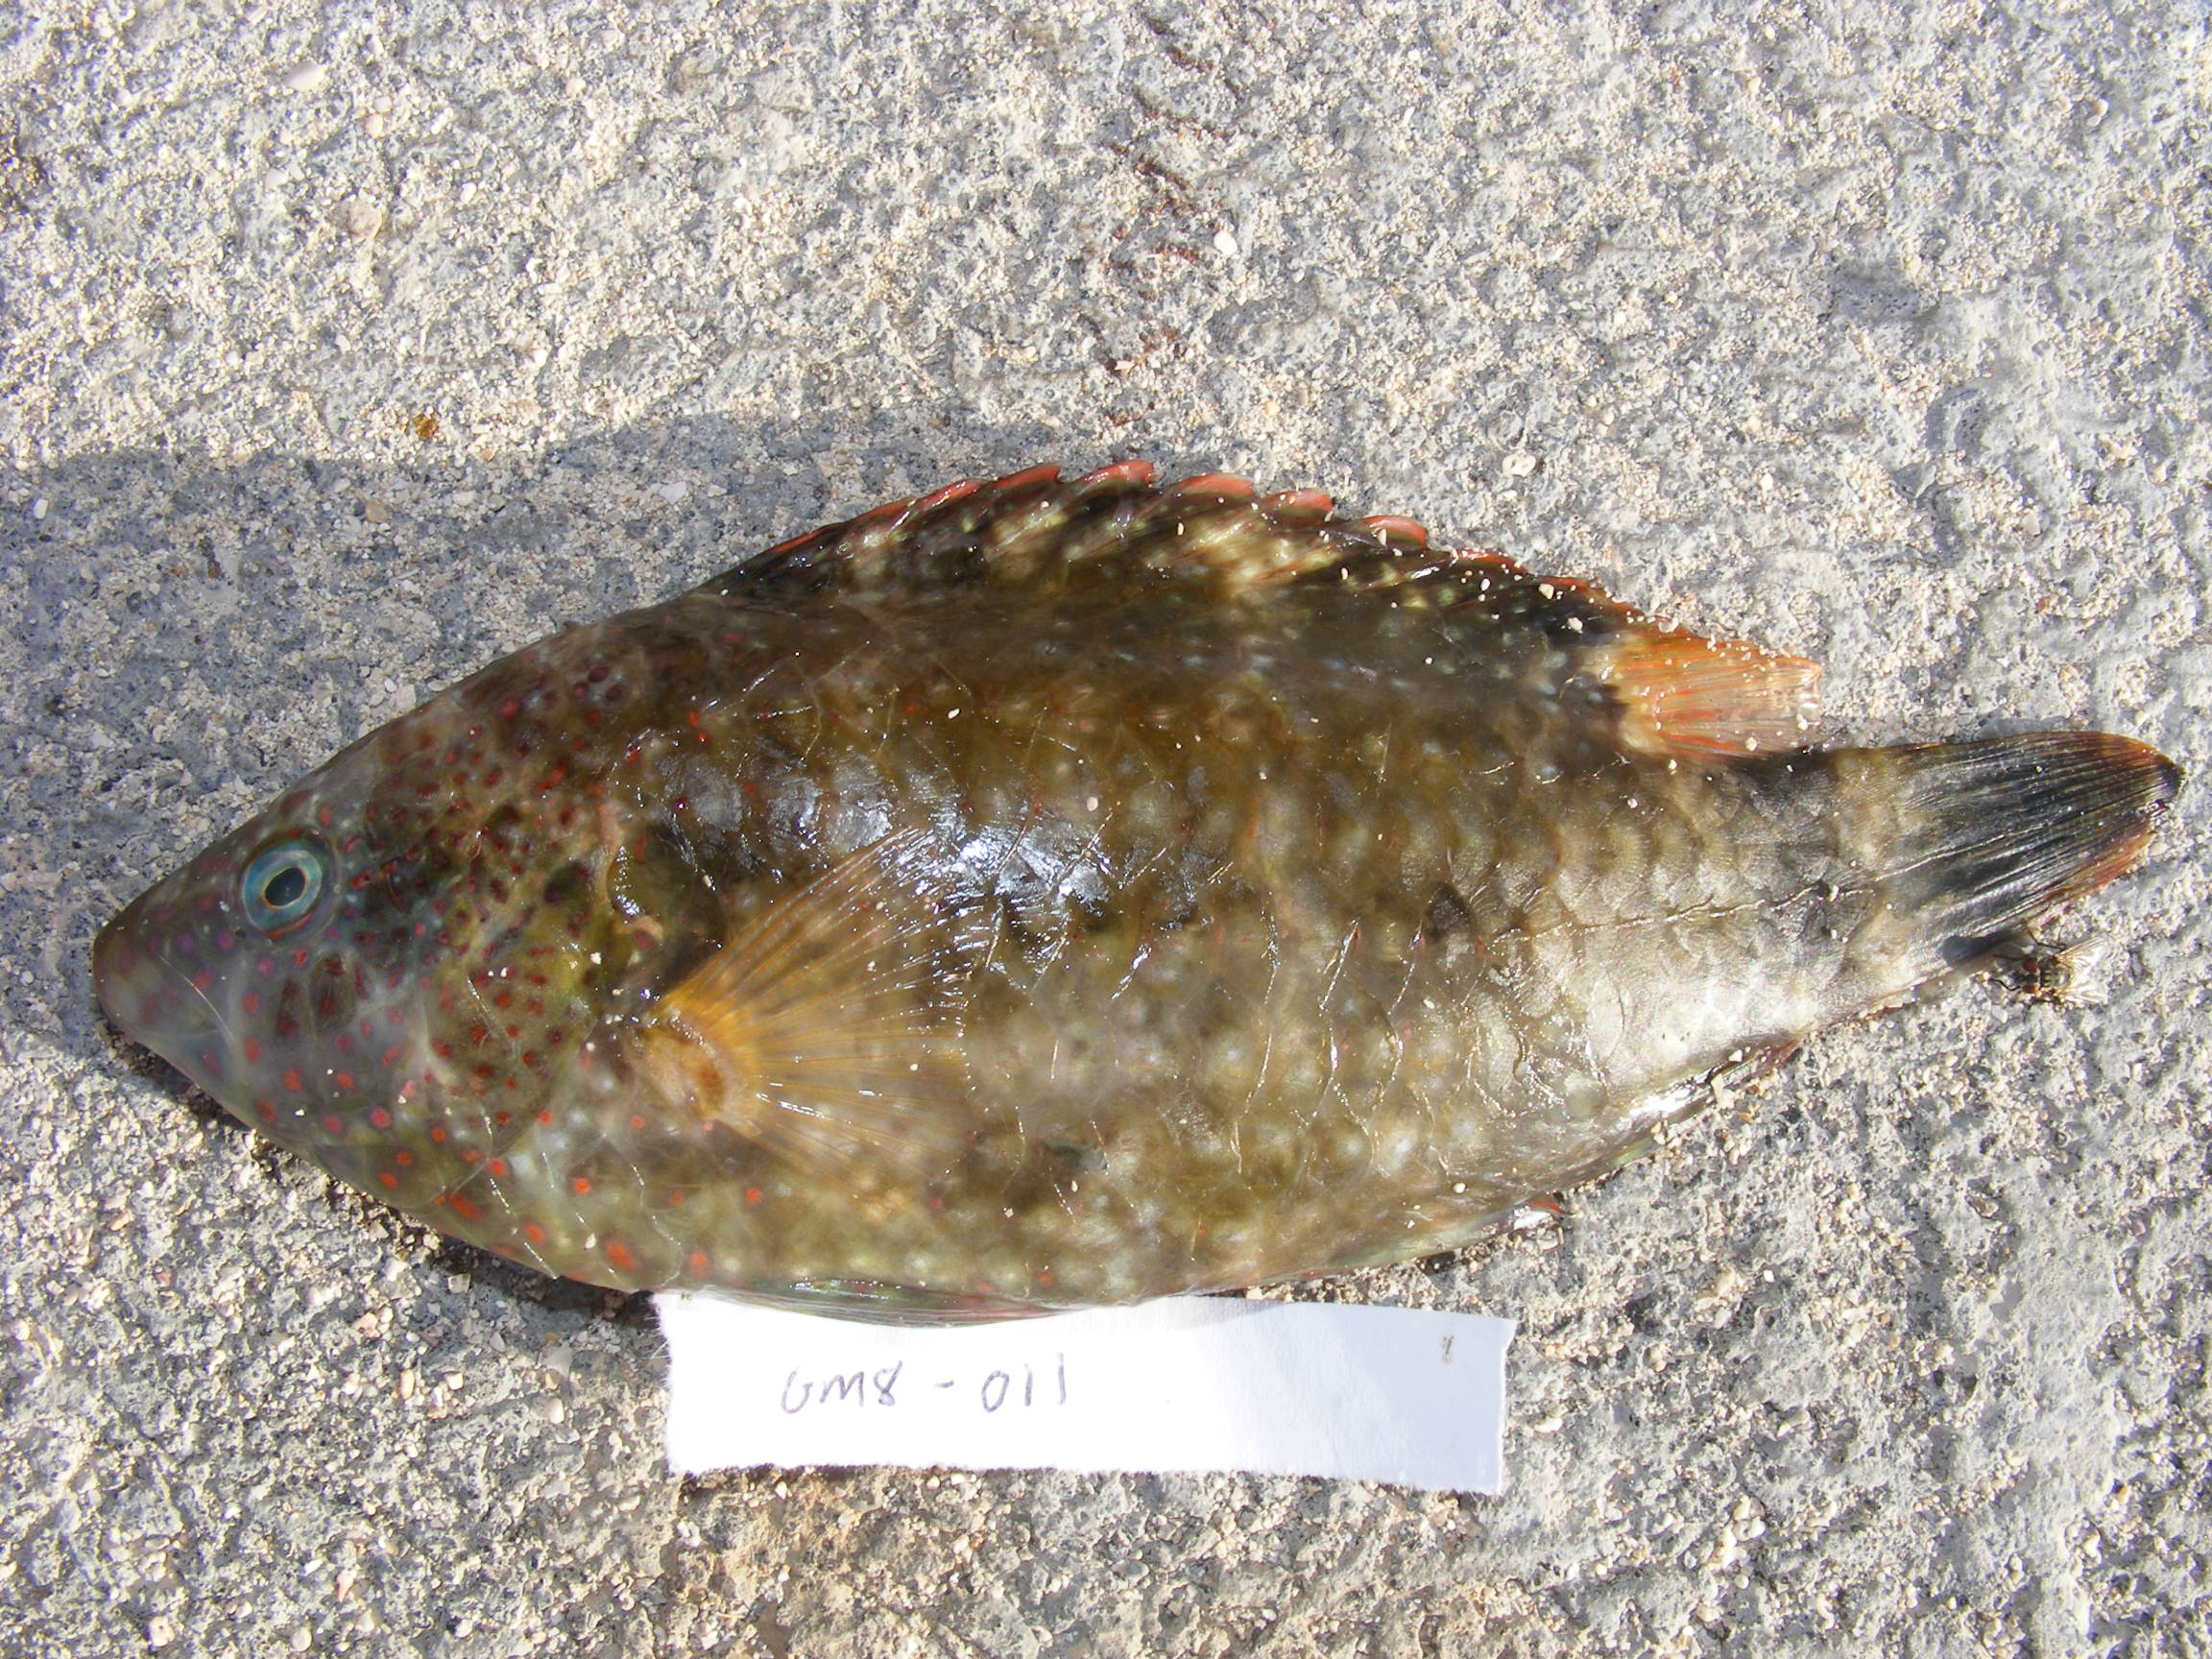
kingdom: Animalia
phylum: Chordata
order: Perciformes
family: Labridae
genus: Cheilinus
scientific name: Cheilinus trilobatus
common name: Tripletail maori wrasse
